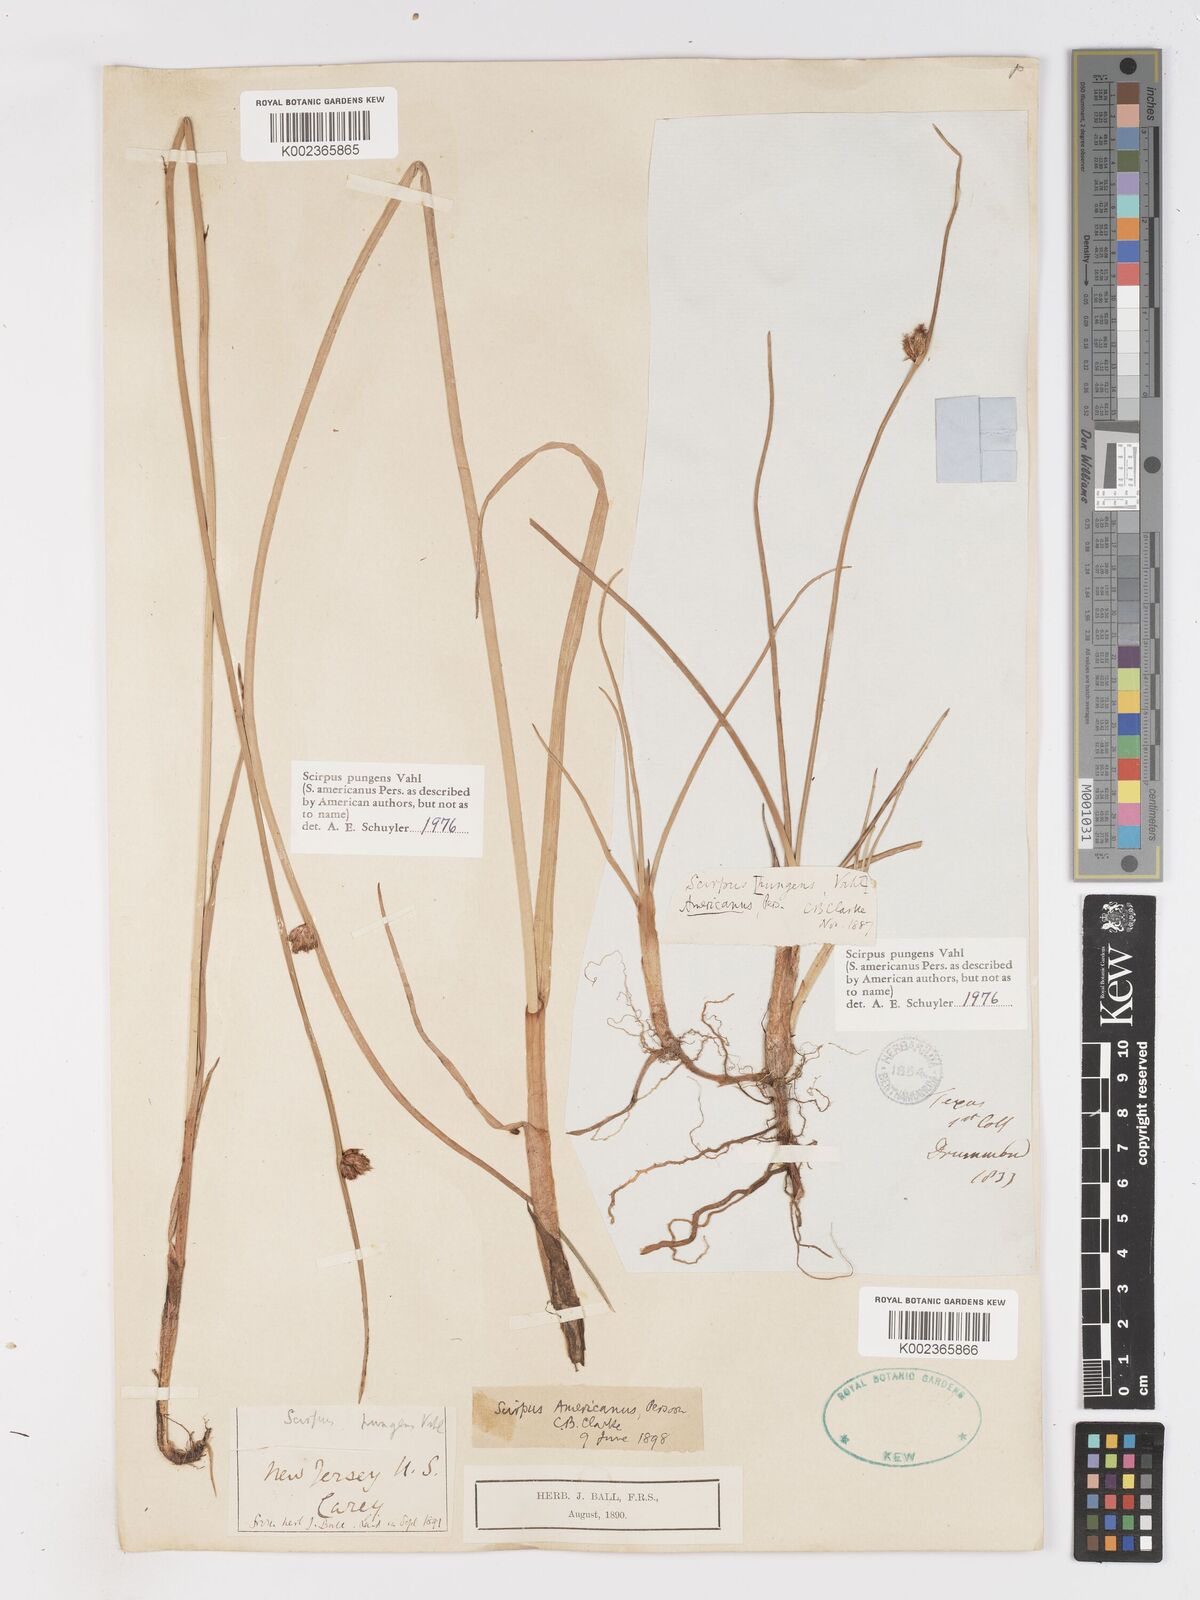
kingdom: Plantae
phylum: Tracheophyta
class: Liliopsida
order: Poales
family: Cyperaceae
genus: Schoenoplectus
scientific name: Schoenoplectus pungens
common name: Sharp club-rush
